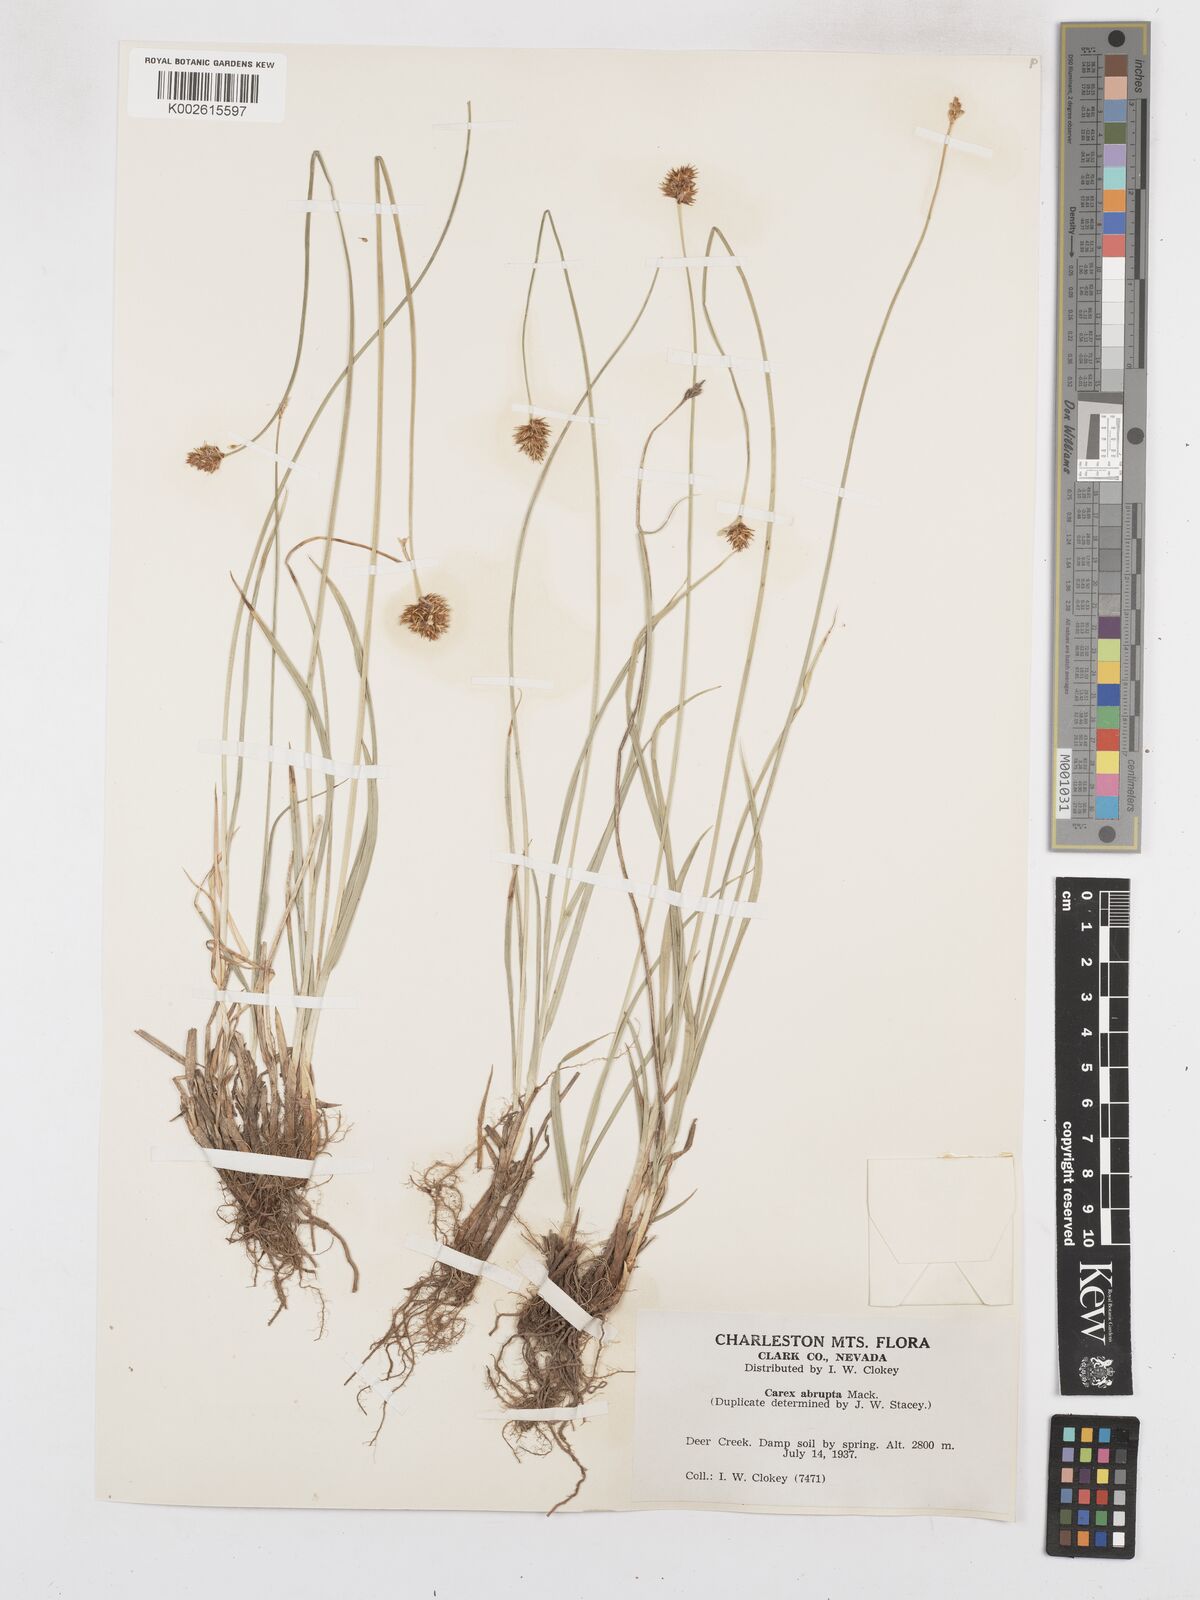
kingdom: Plantae
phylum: Tracheophyta
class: Liliopsida
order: Poales
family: Cyperaceae
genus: Carex
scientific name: Carex abrupta
